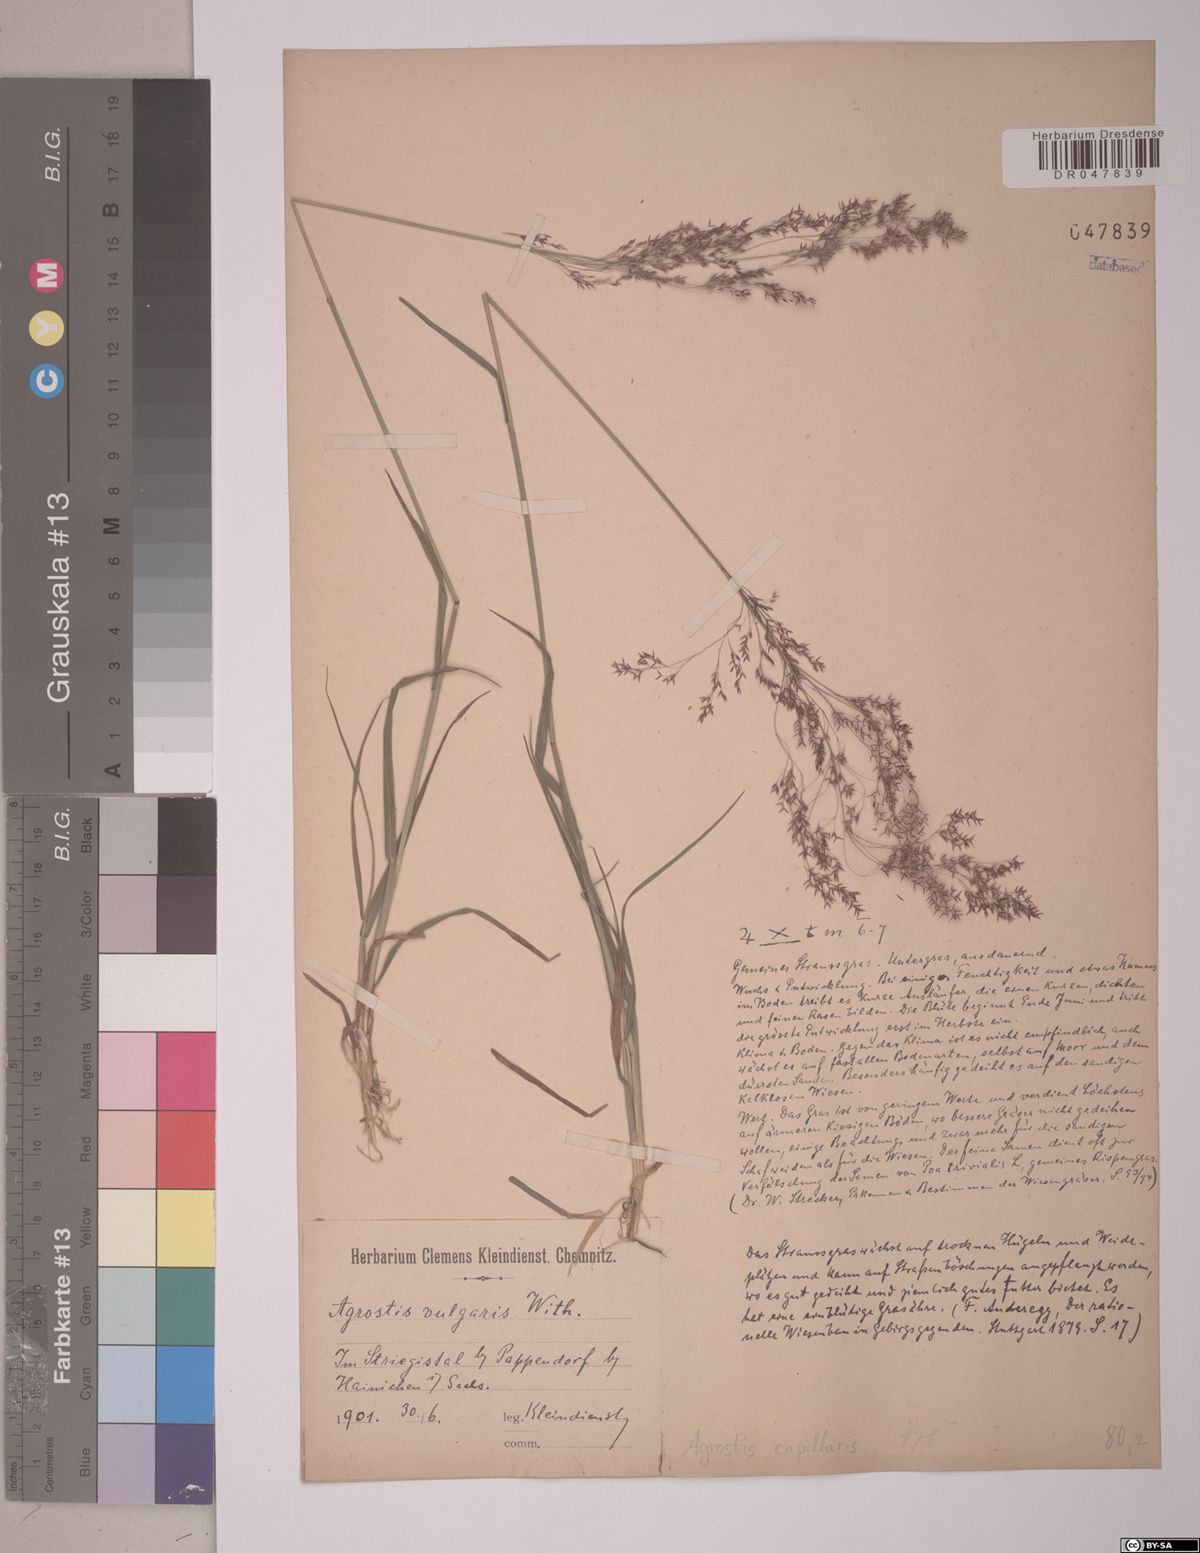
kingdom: Plantae
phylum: Tracheophyta
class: Liliopsida
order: Poales
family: Poaceae
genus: Agrostis
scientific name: Agrostis capillaris
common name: Colonial bentgrass
